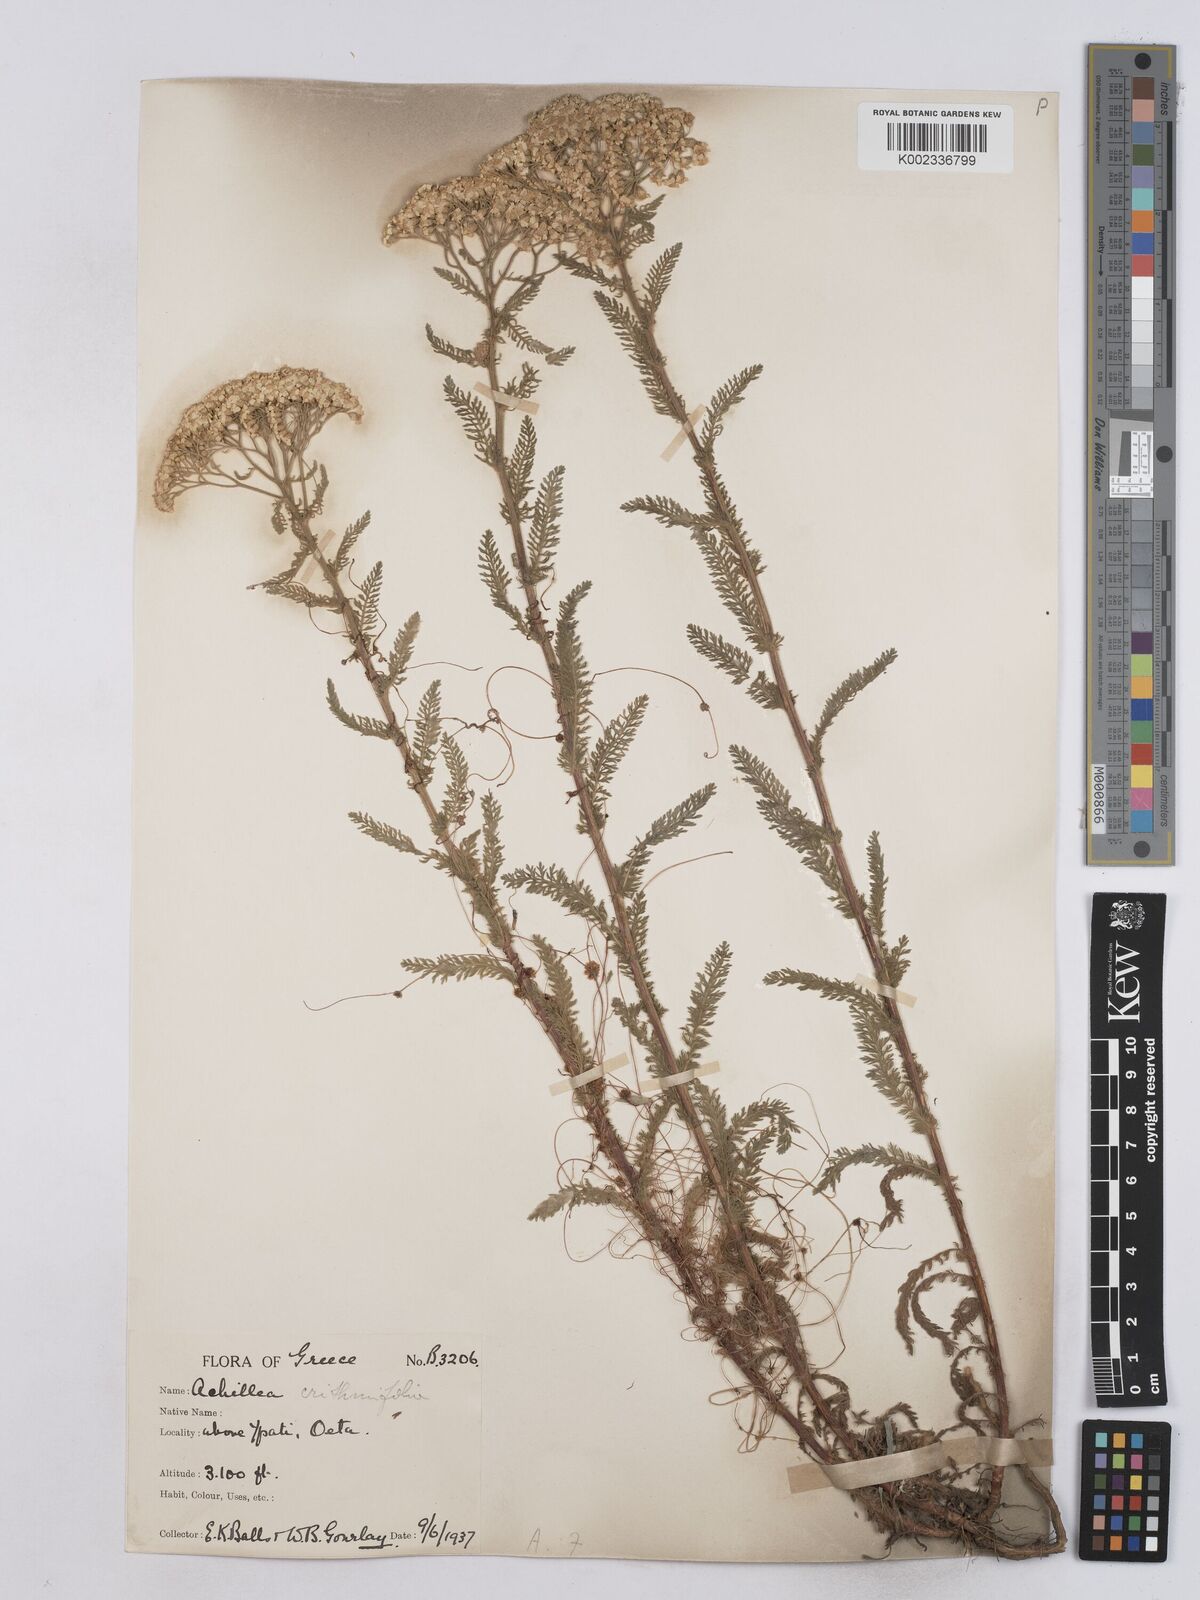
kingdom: Plantae
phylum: Tracheophyta
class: Magnoliopsida
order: Asterales
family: Asteraceae
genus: Achillea
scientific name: Achillea crithmifolia
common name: Yarrow
